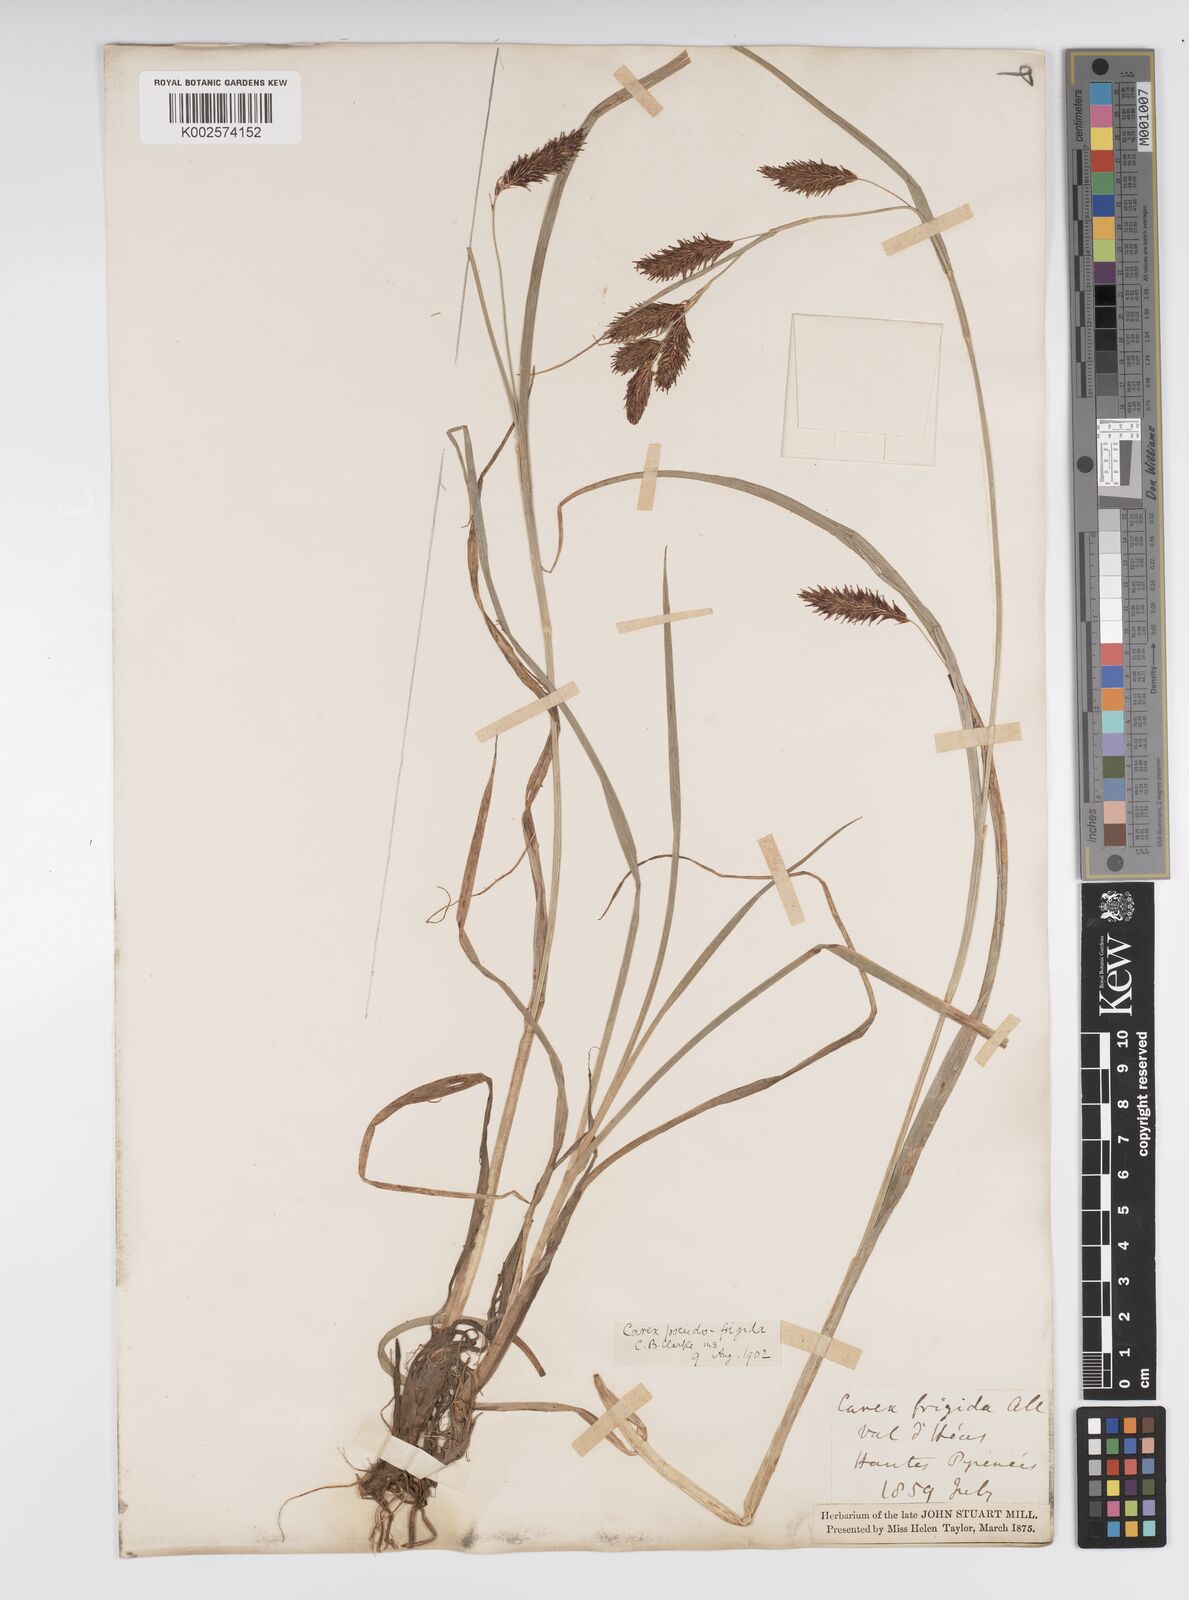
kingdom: Plantae
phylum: Tracheophyta
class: Liliopsida
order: Poales
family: Cyperaceae
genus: Carex
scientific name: Carex frigida
